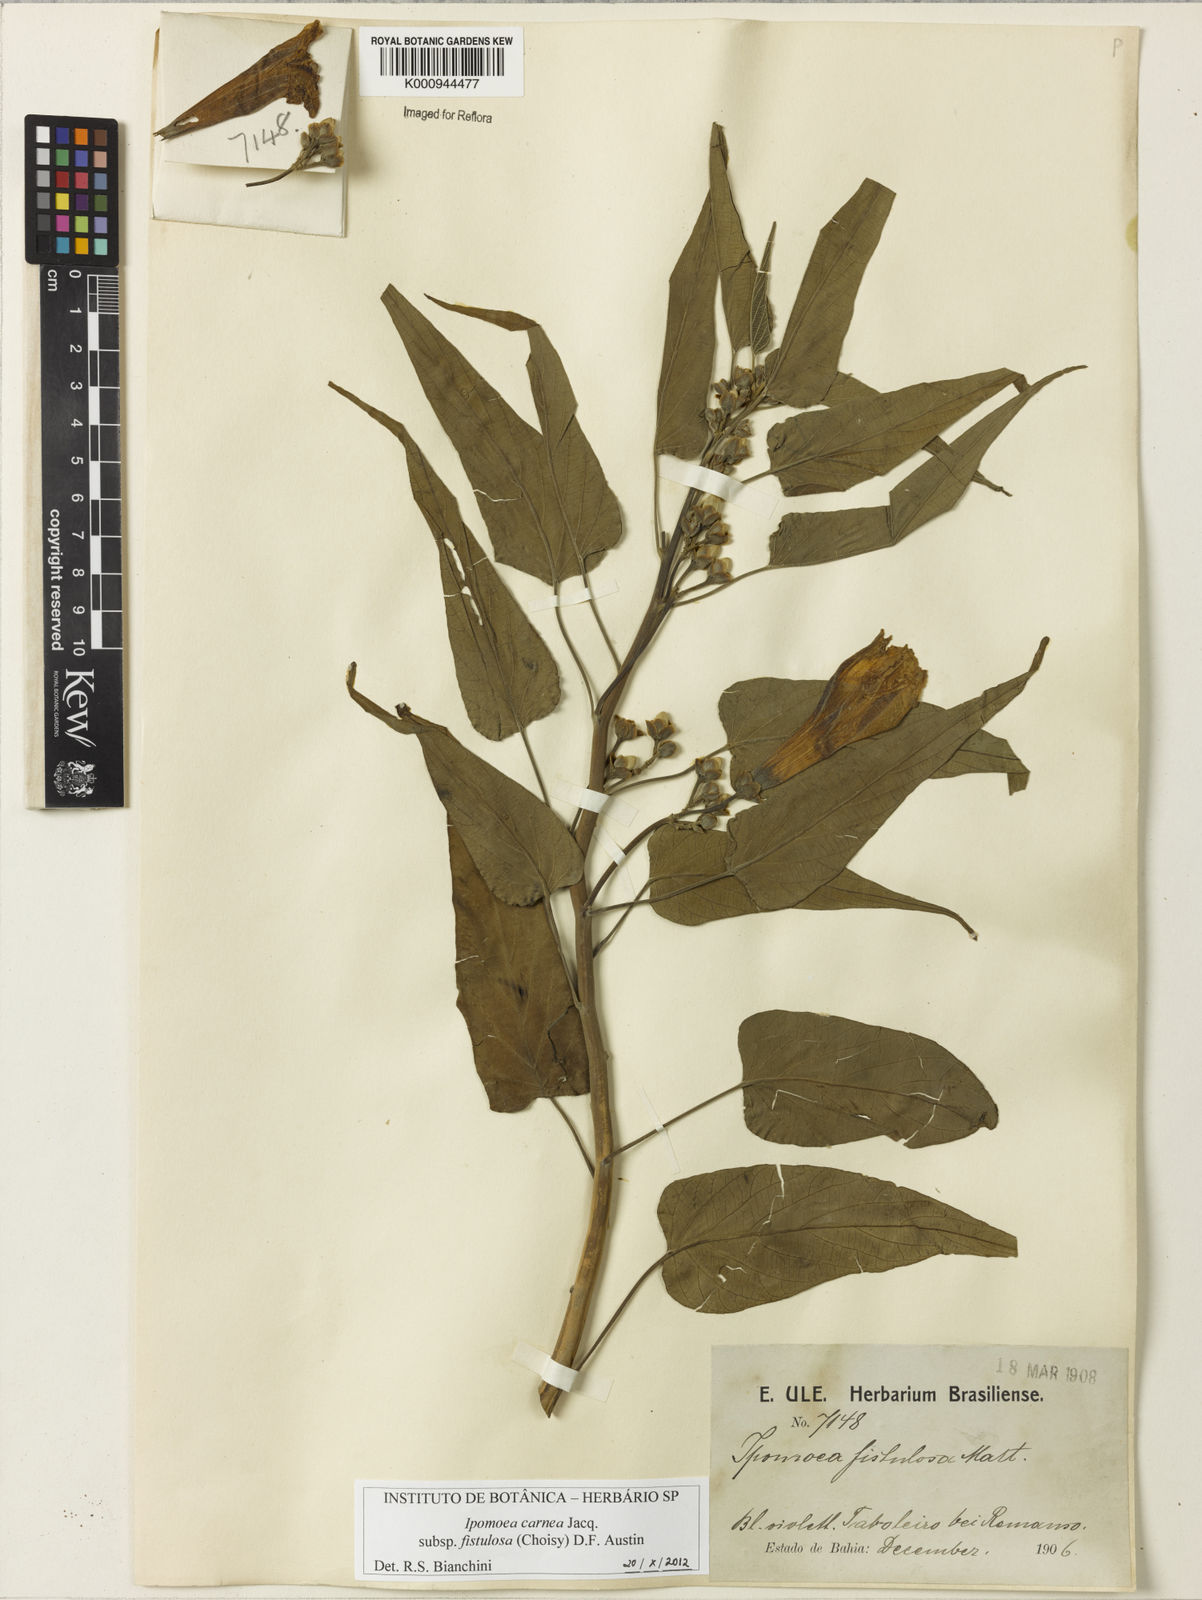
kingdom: Plantae
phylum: Tracheophyta
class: Magnoliopsida
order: Solanales
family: Convolvulaceae
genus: Ipomoea
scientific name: Ipomoea
